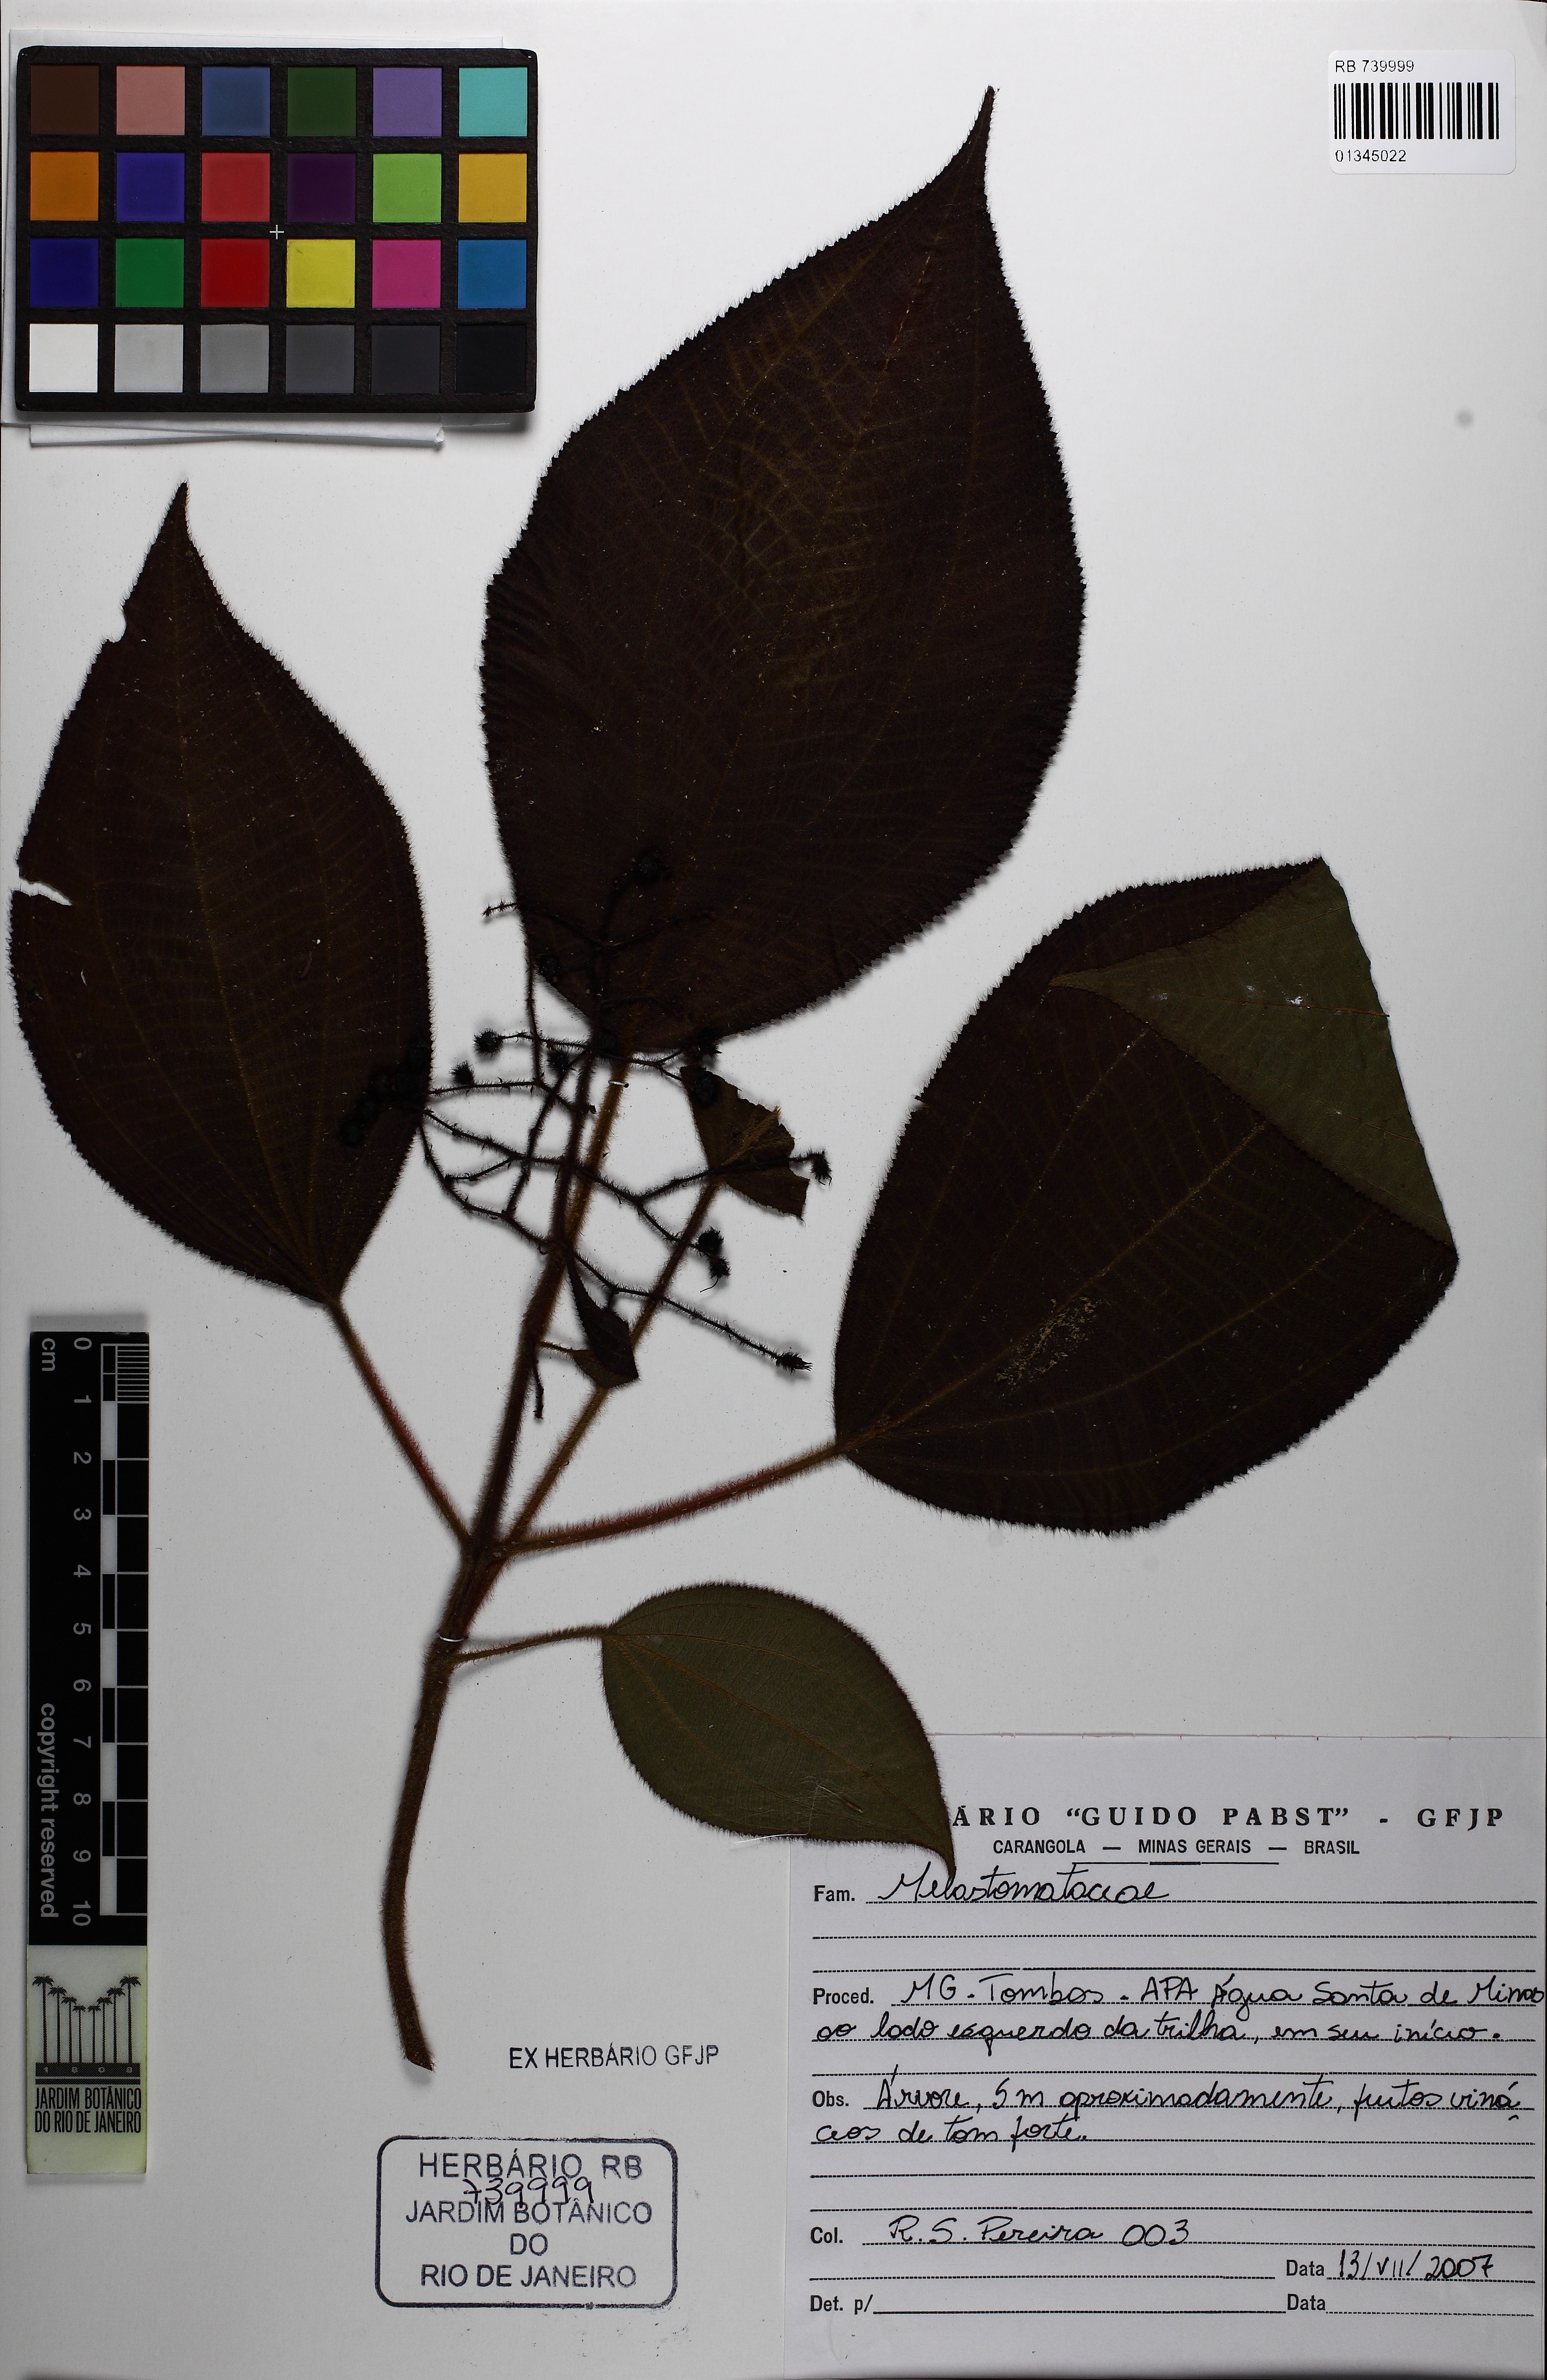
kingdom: Plantae
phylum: Tracheophyta
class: Magnoliopsida
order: Myrtales
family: Melastomataceae
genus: Miconia
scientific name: Miconia reversa
